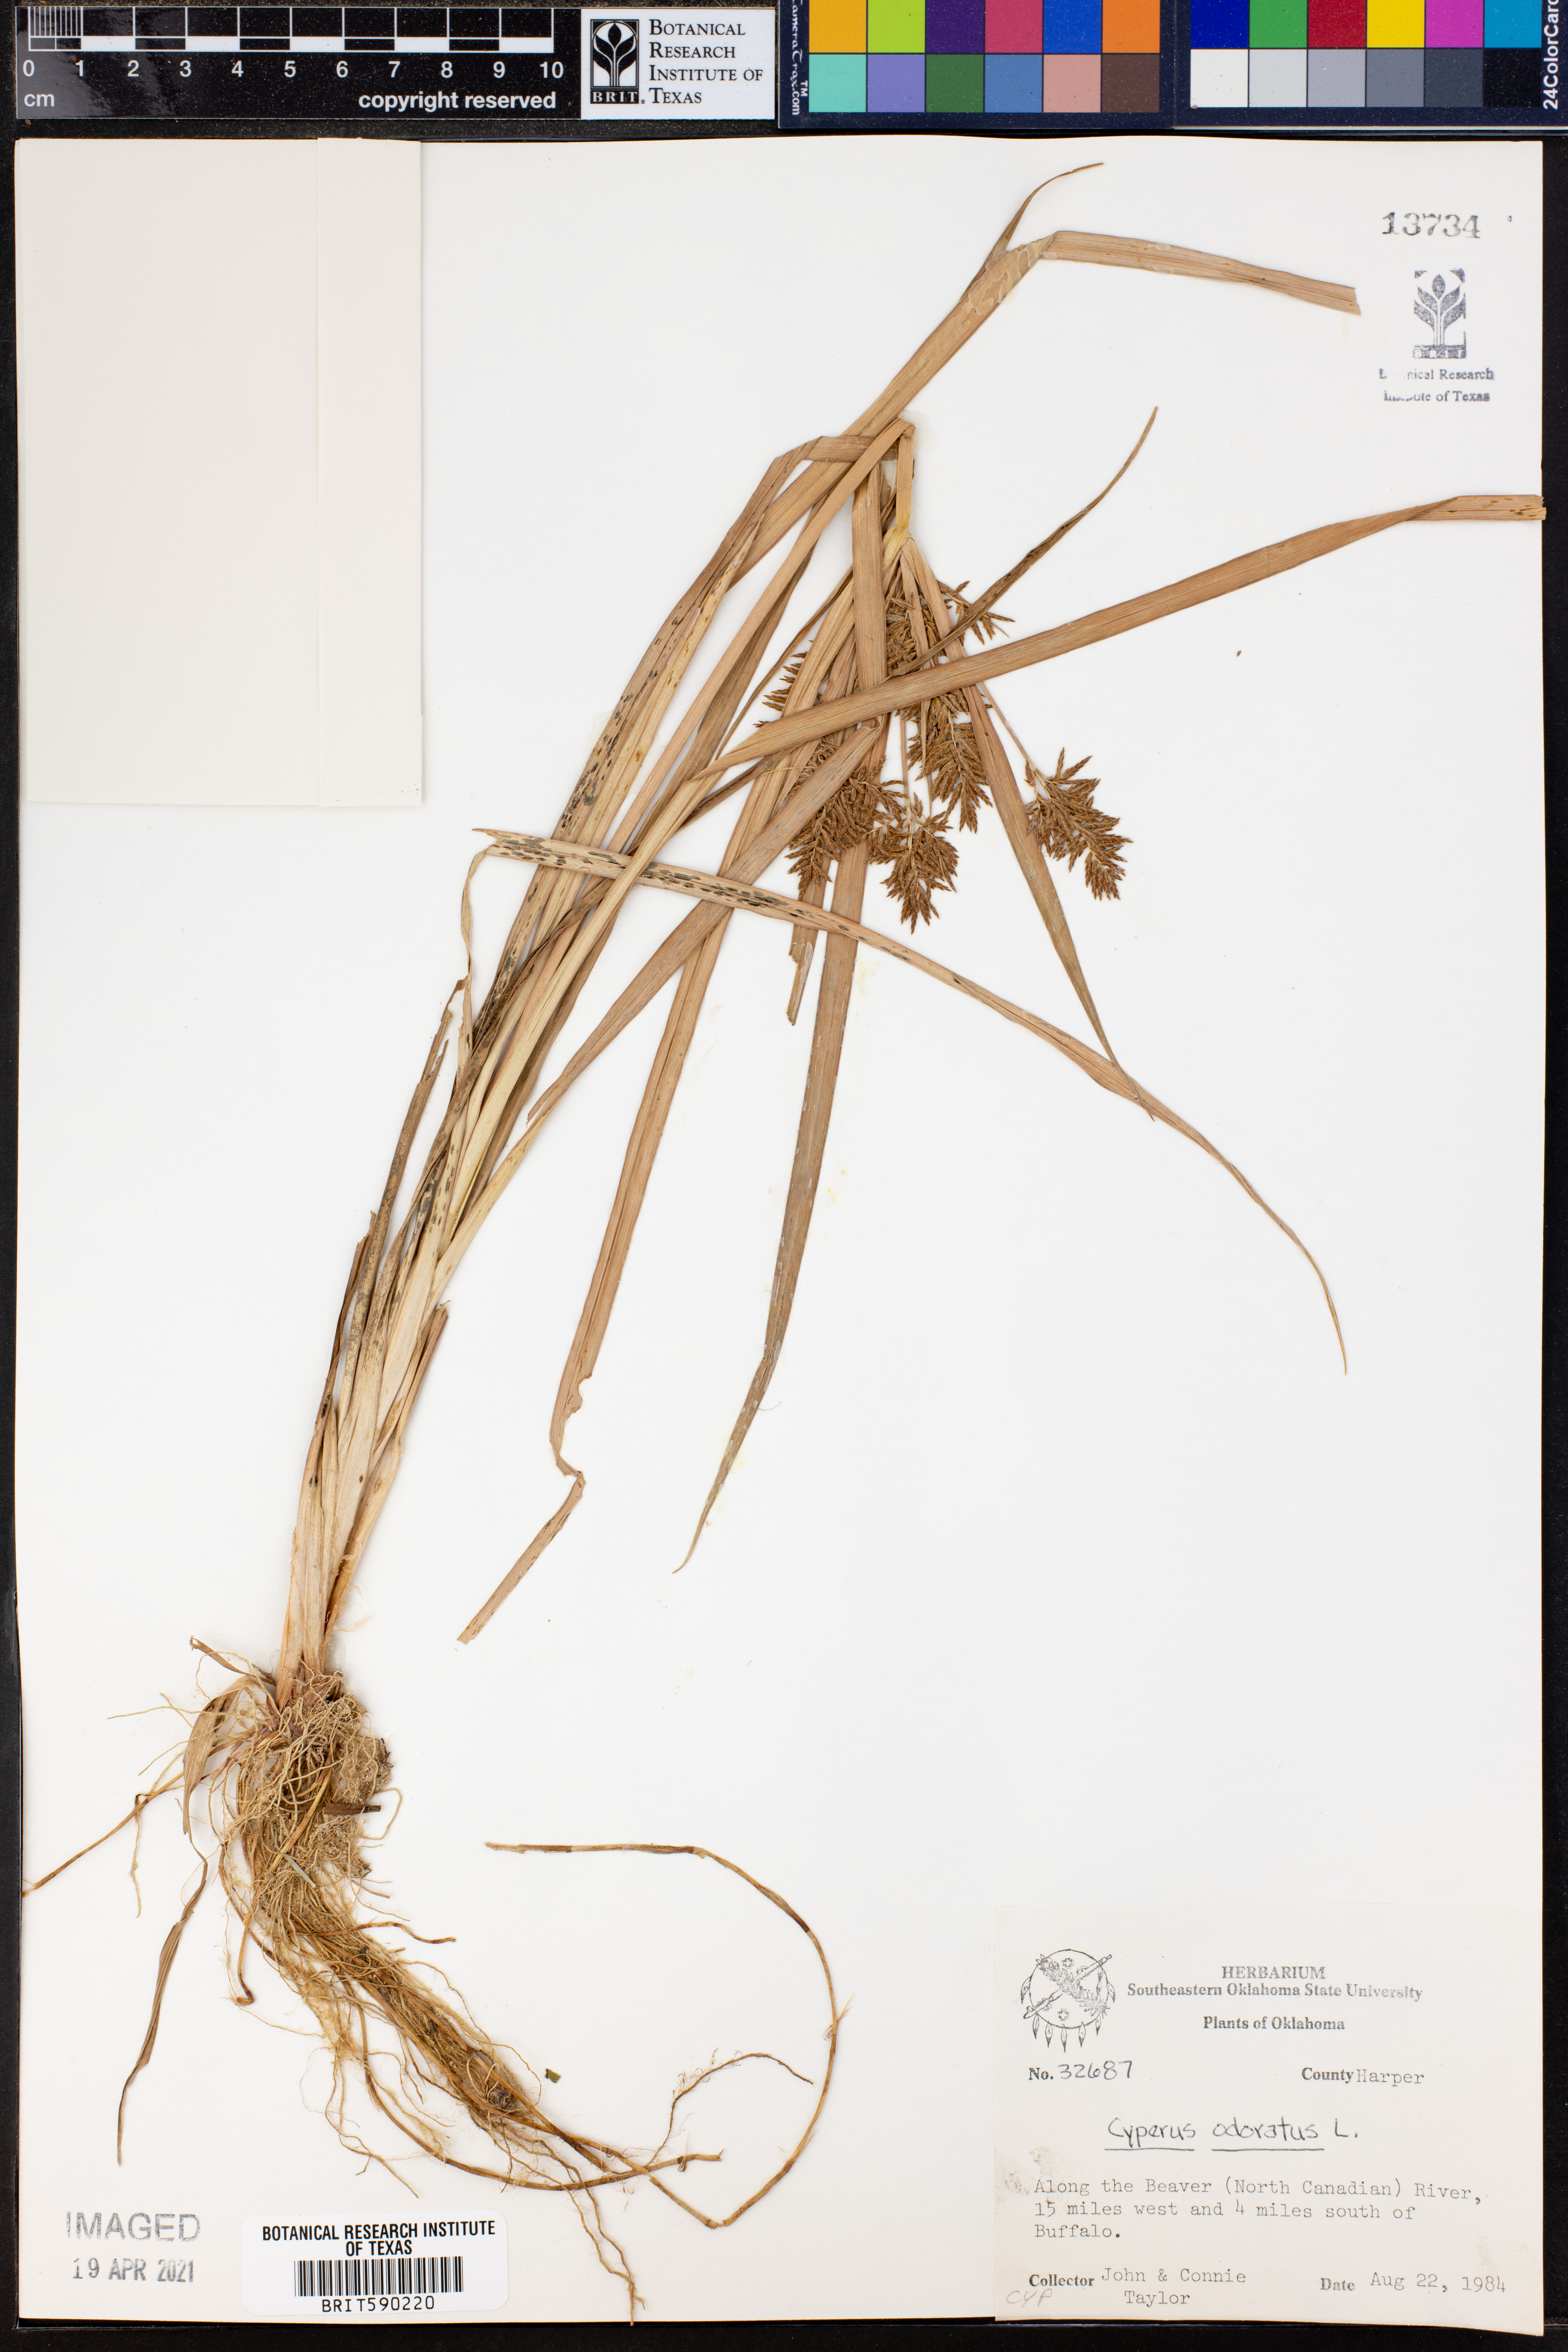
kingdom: Plantae
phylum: Tracheophyta
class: Liliopsida
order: Poales
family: Cyperaceae
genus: Cyperus
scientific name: Cyperus odoratus
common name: Fragrant flatsedge
